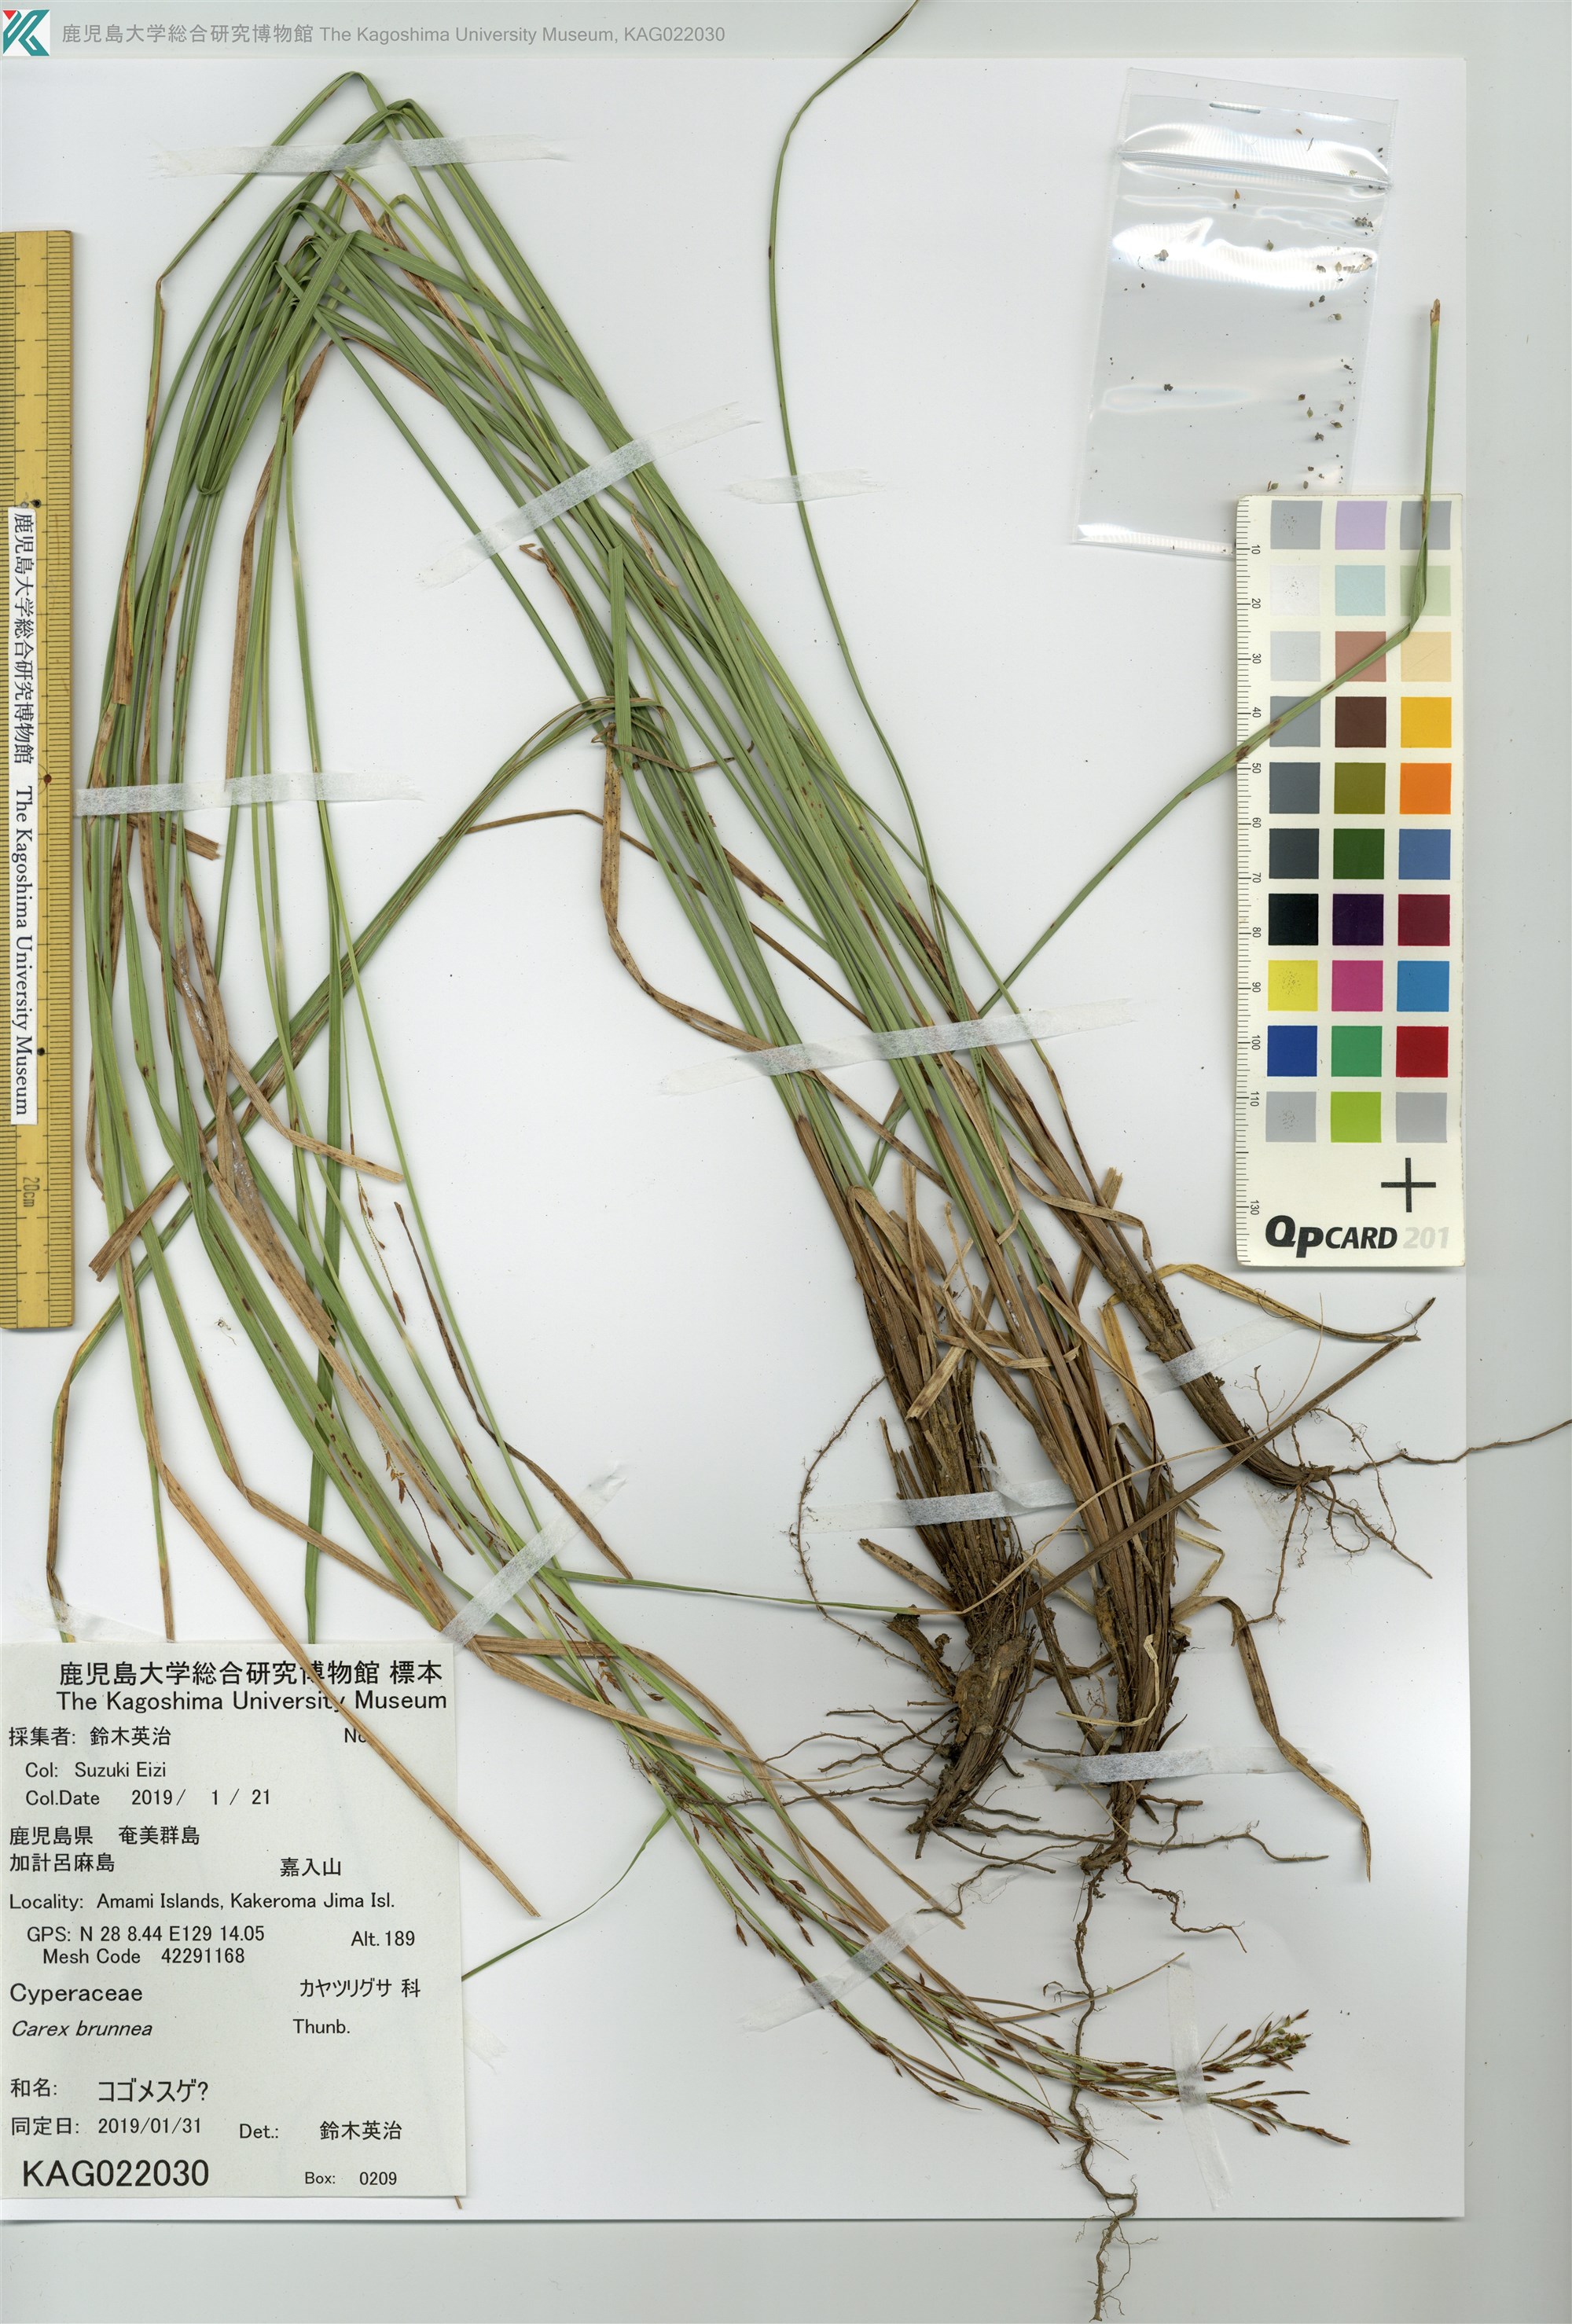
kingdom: Plantae
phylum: Tracheophyta
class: Liliopsida
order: Poales
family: Cyperaceae
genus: Carex
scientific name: Carex
